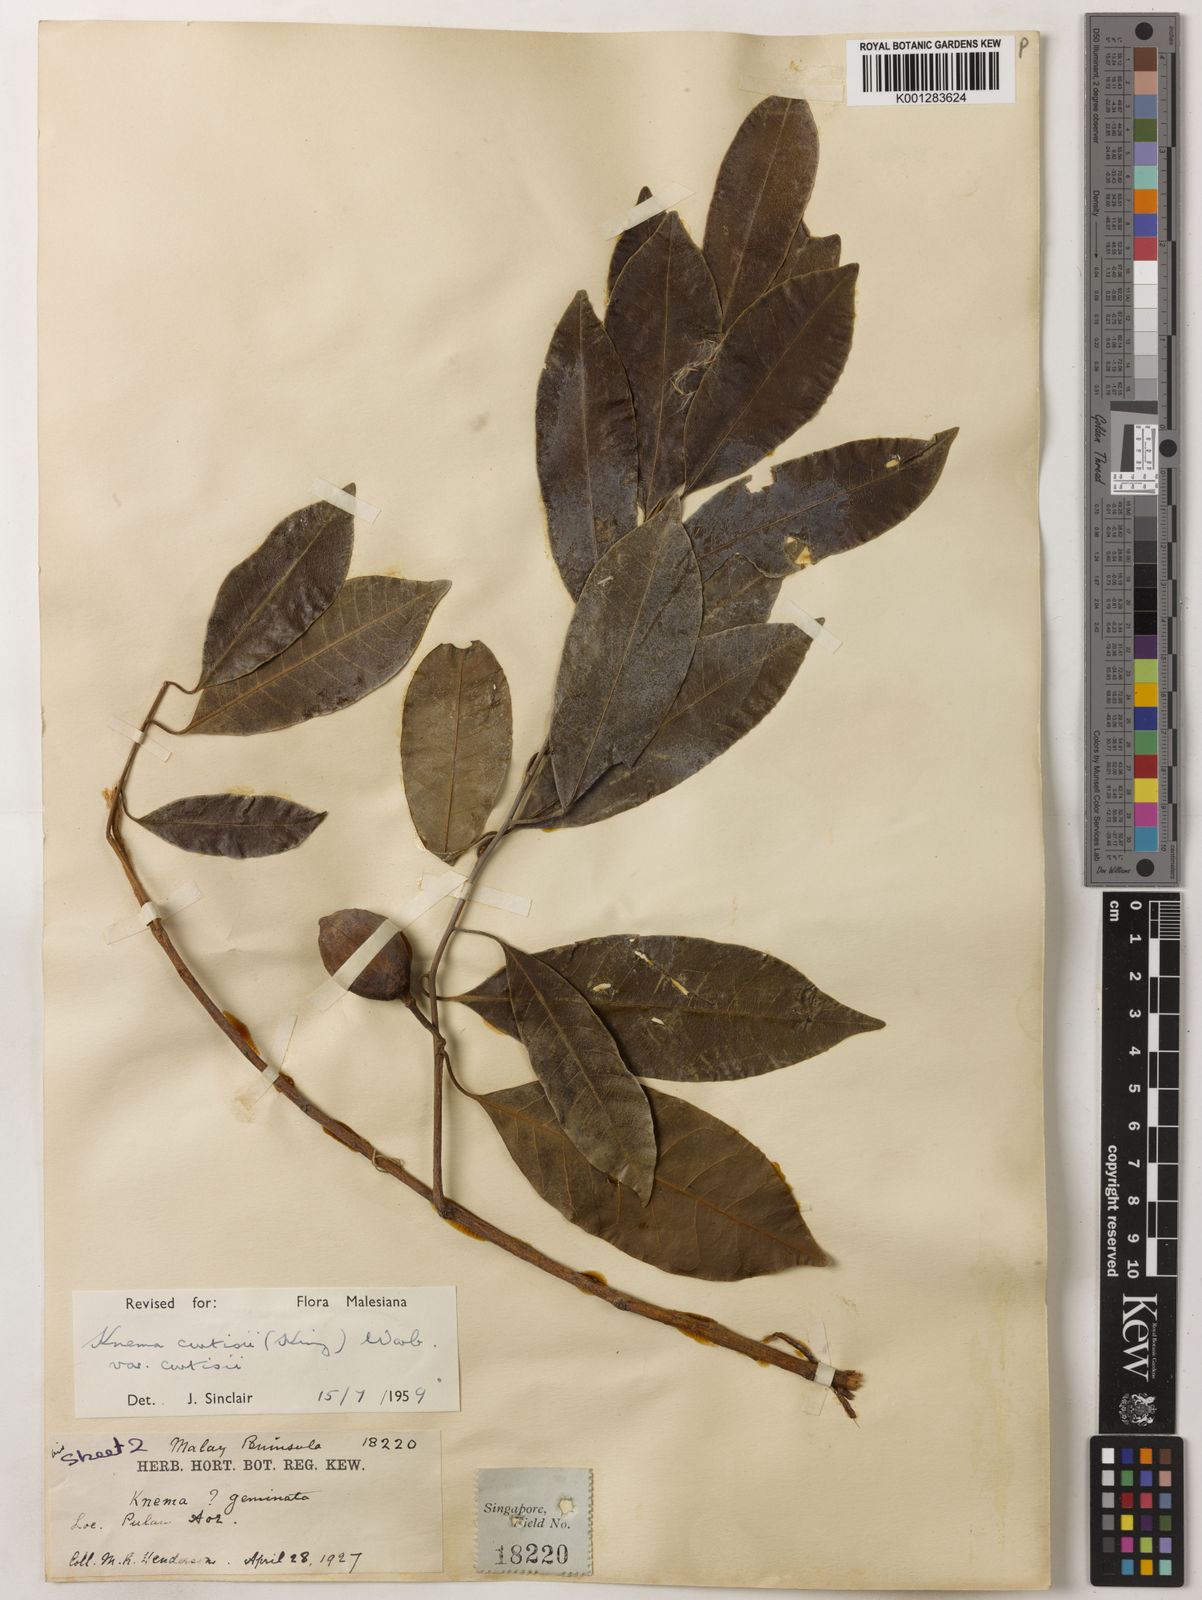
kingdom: Plantae
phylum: Tracheophyta
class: Magnoliopsida
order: Magnoliales
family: Myristicaceae
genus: Knema
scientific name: Knema curtisii
